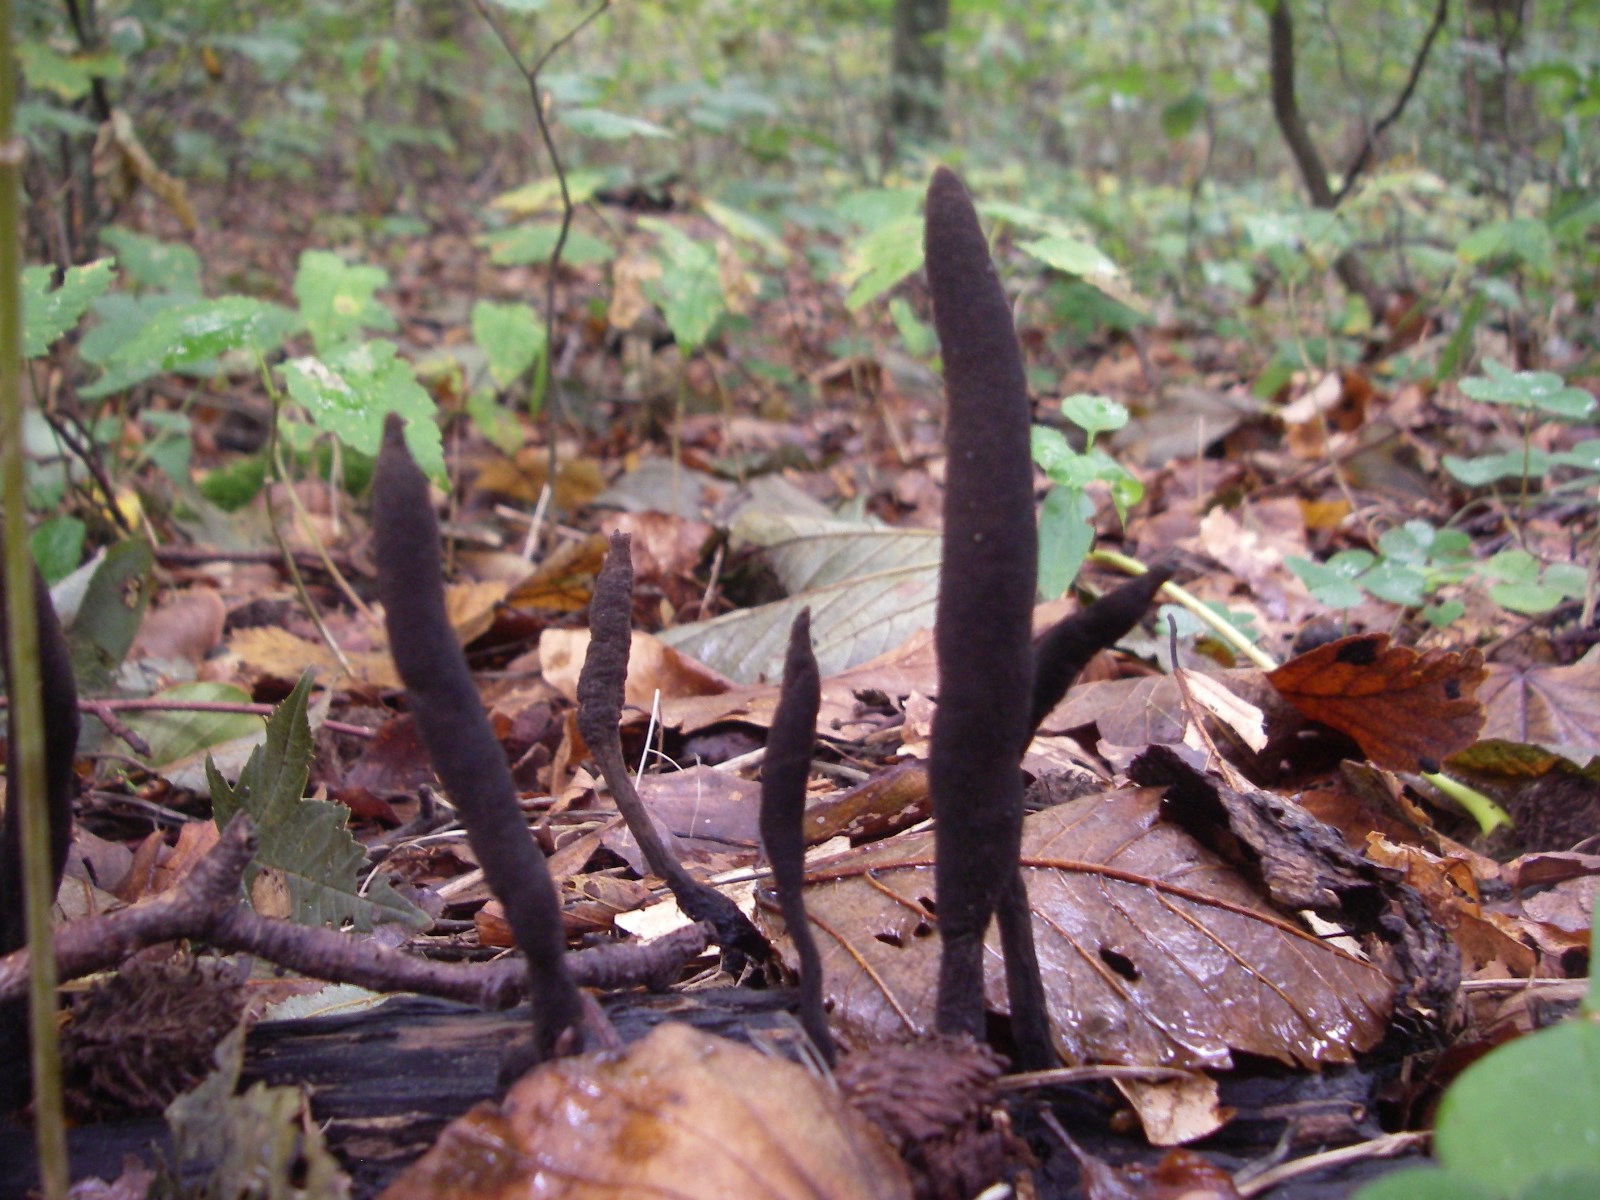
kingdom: Fungi
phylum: Ascomycota
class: Sordariomycetes
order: Xylariales
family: Xylariaceae
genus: Xylaria
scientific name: Xylaria longipes
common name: slank stødsvamp
